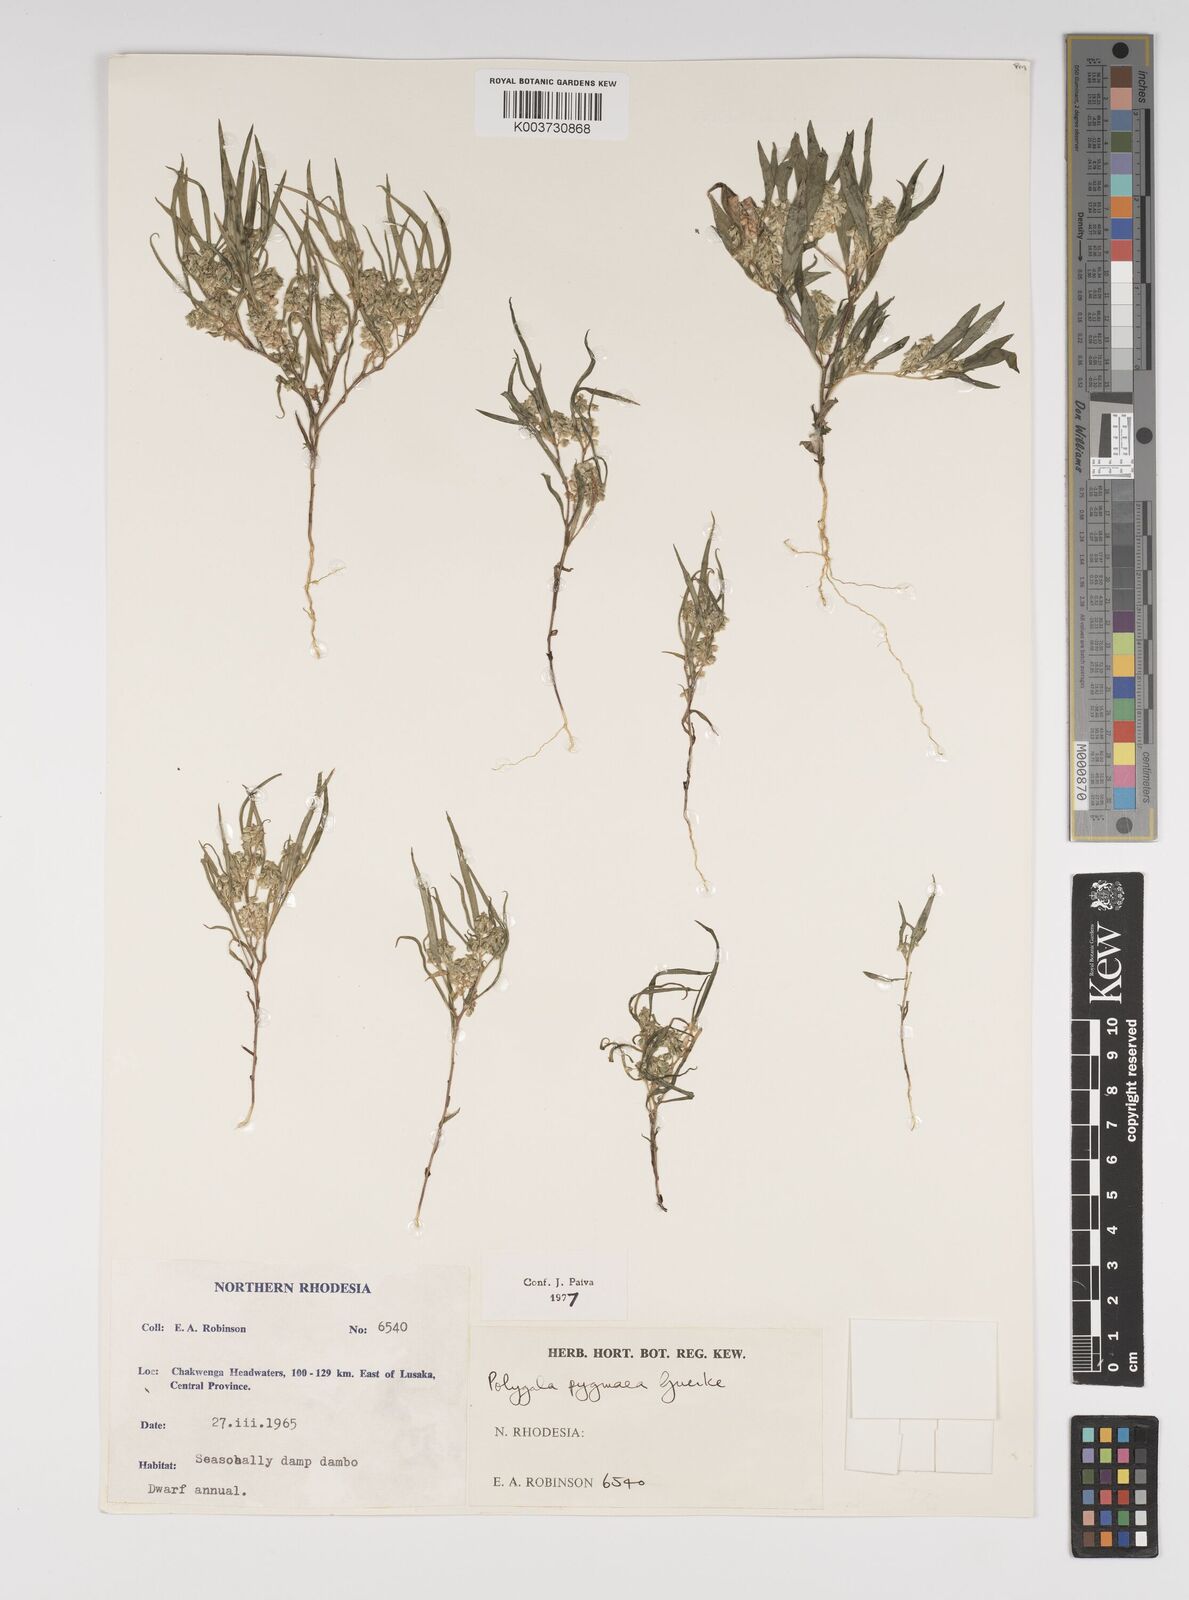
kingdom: Plantae
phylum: Tracheophyta
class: Magnoliopsida
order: Fabales
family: Polygalaceae
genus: Polygala
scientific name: Polygala welwitschii
